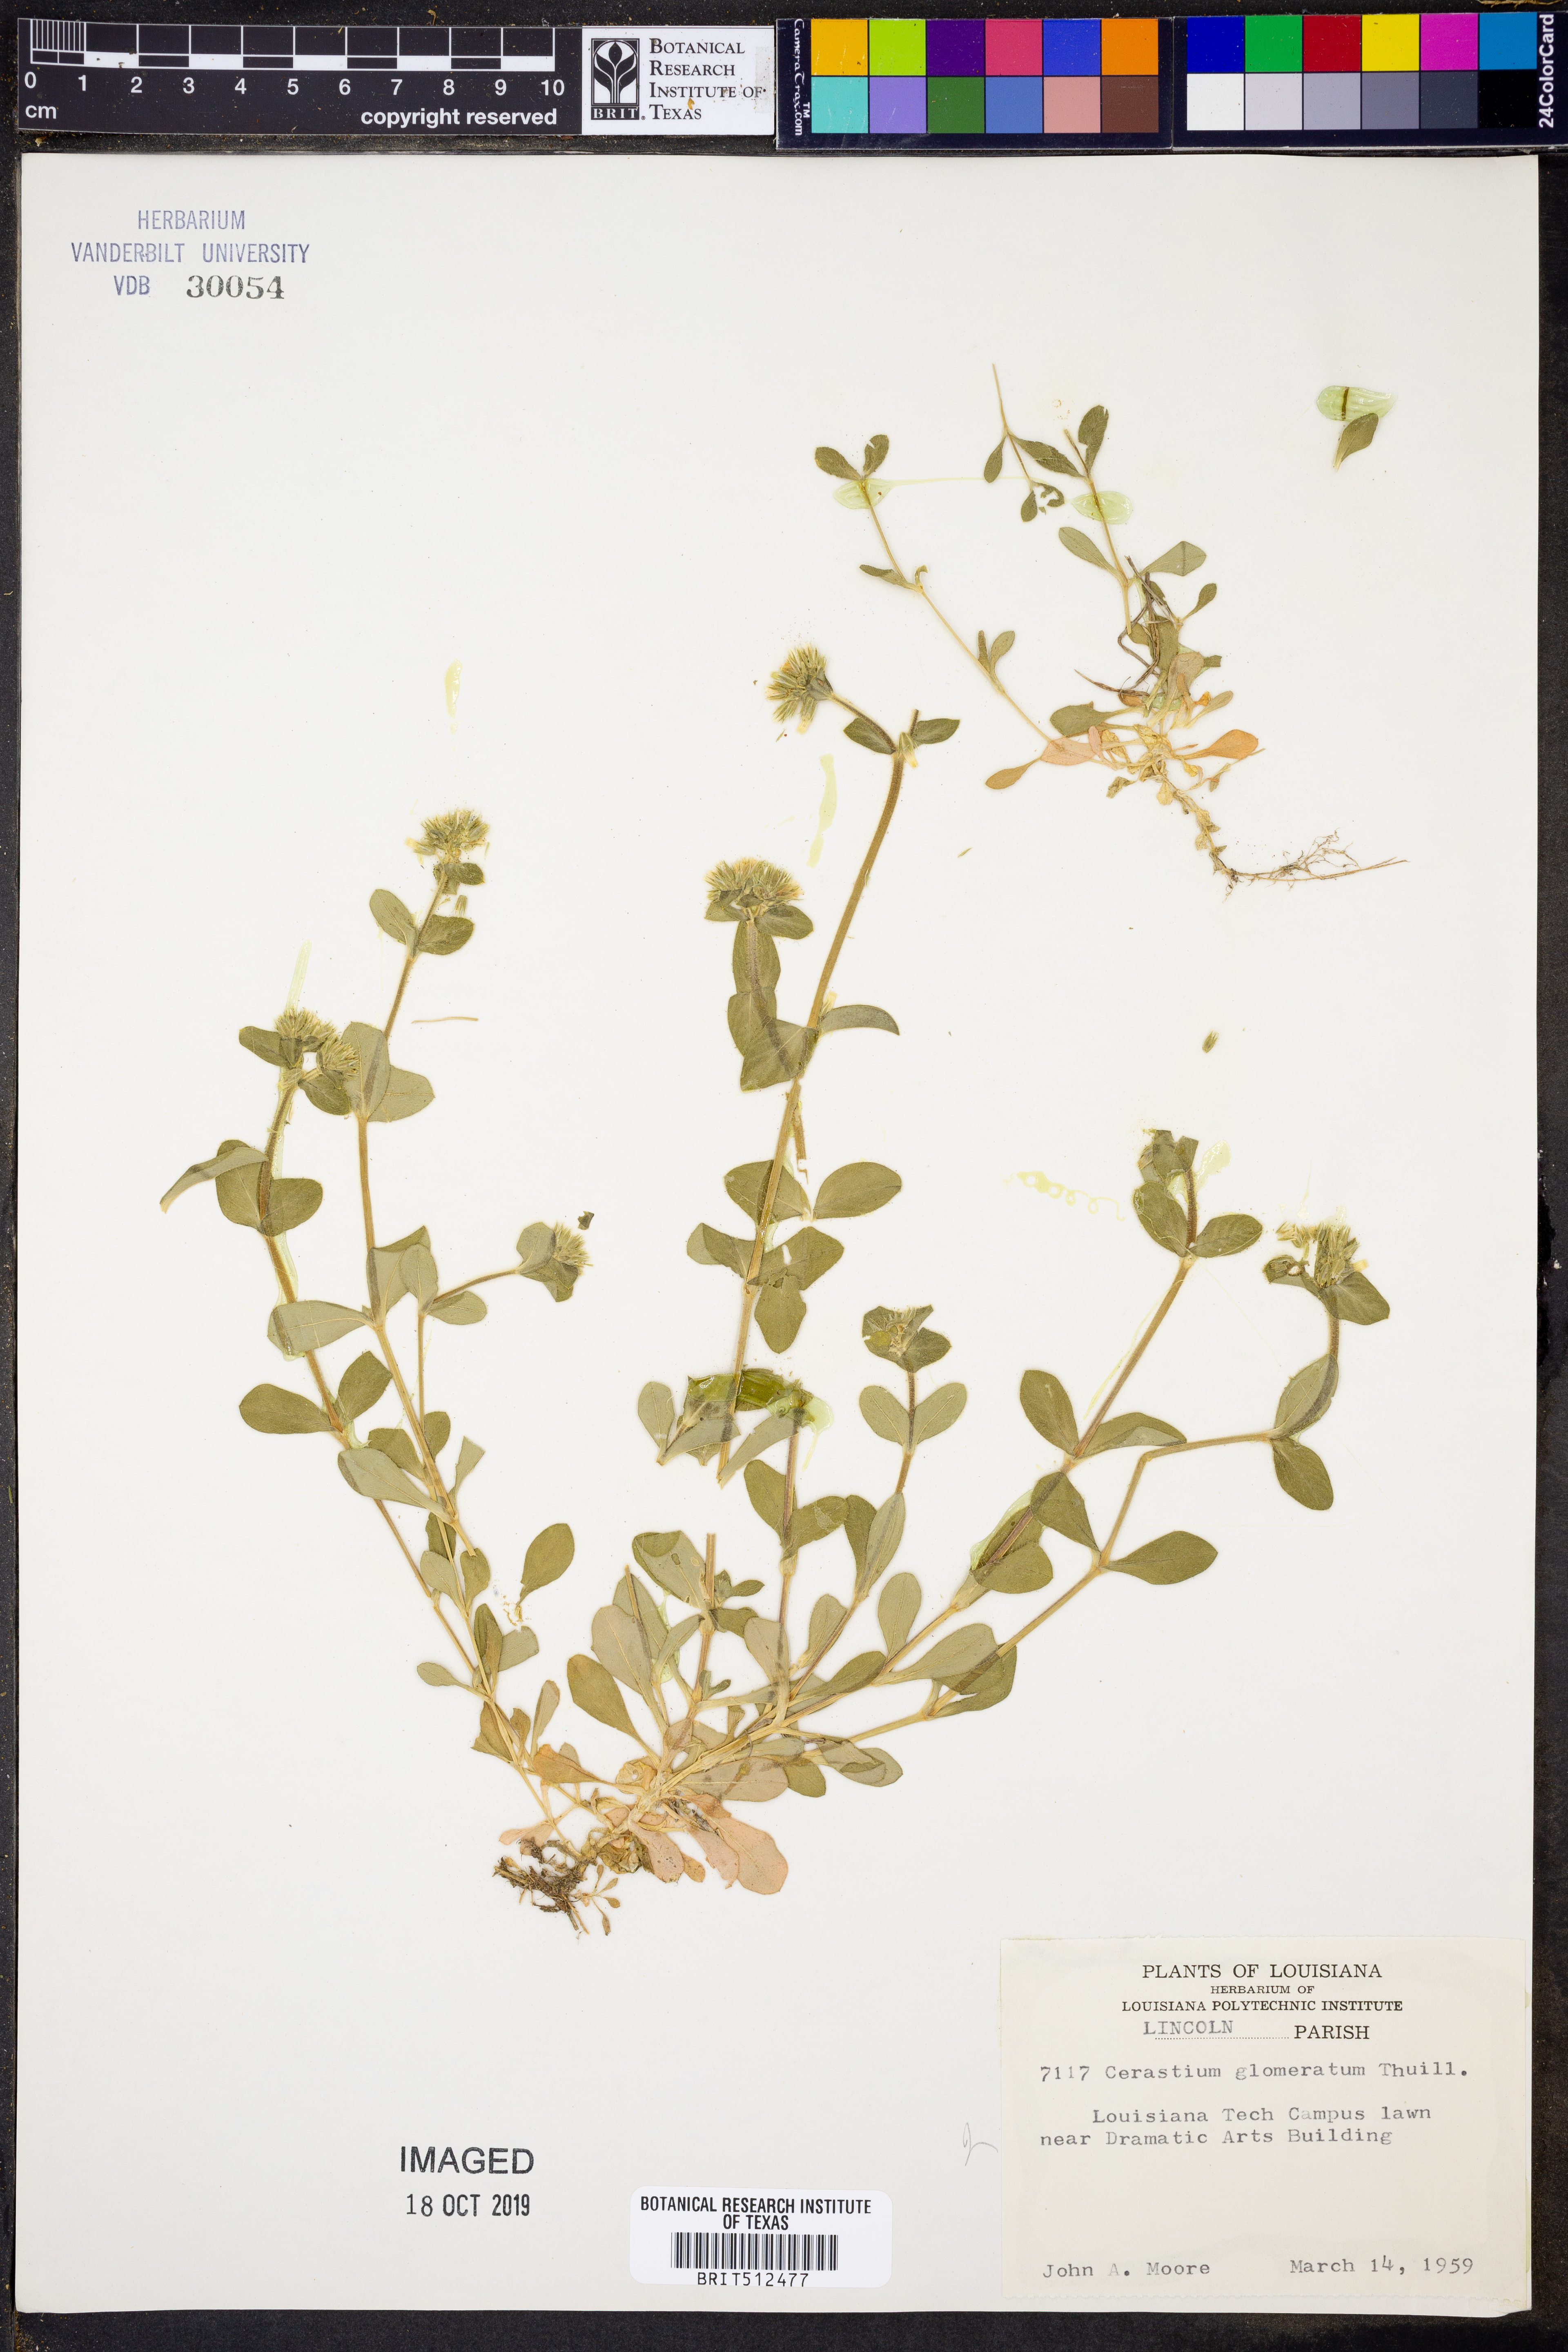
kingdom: Plantae
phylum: Tracheophyta
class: Magnoliopsida
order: Caryophyllales
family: Caryophyllaceae
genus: Cerastium
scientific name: Cerastium glomeratum
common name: Sticky chickweed
